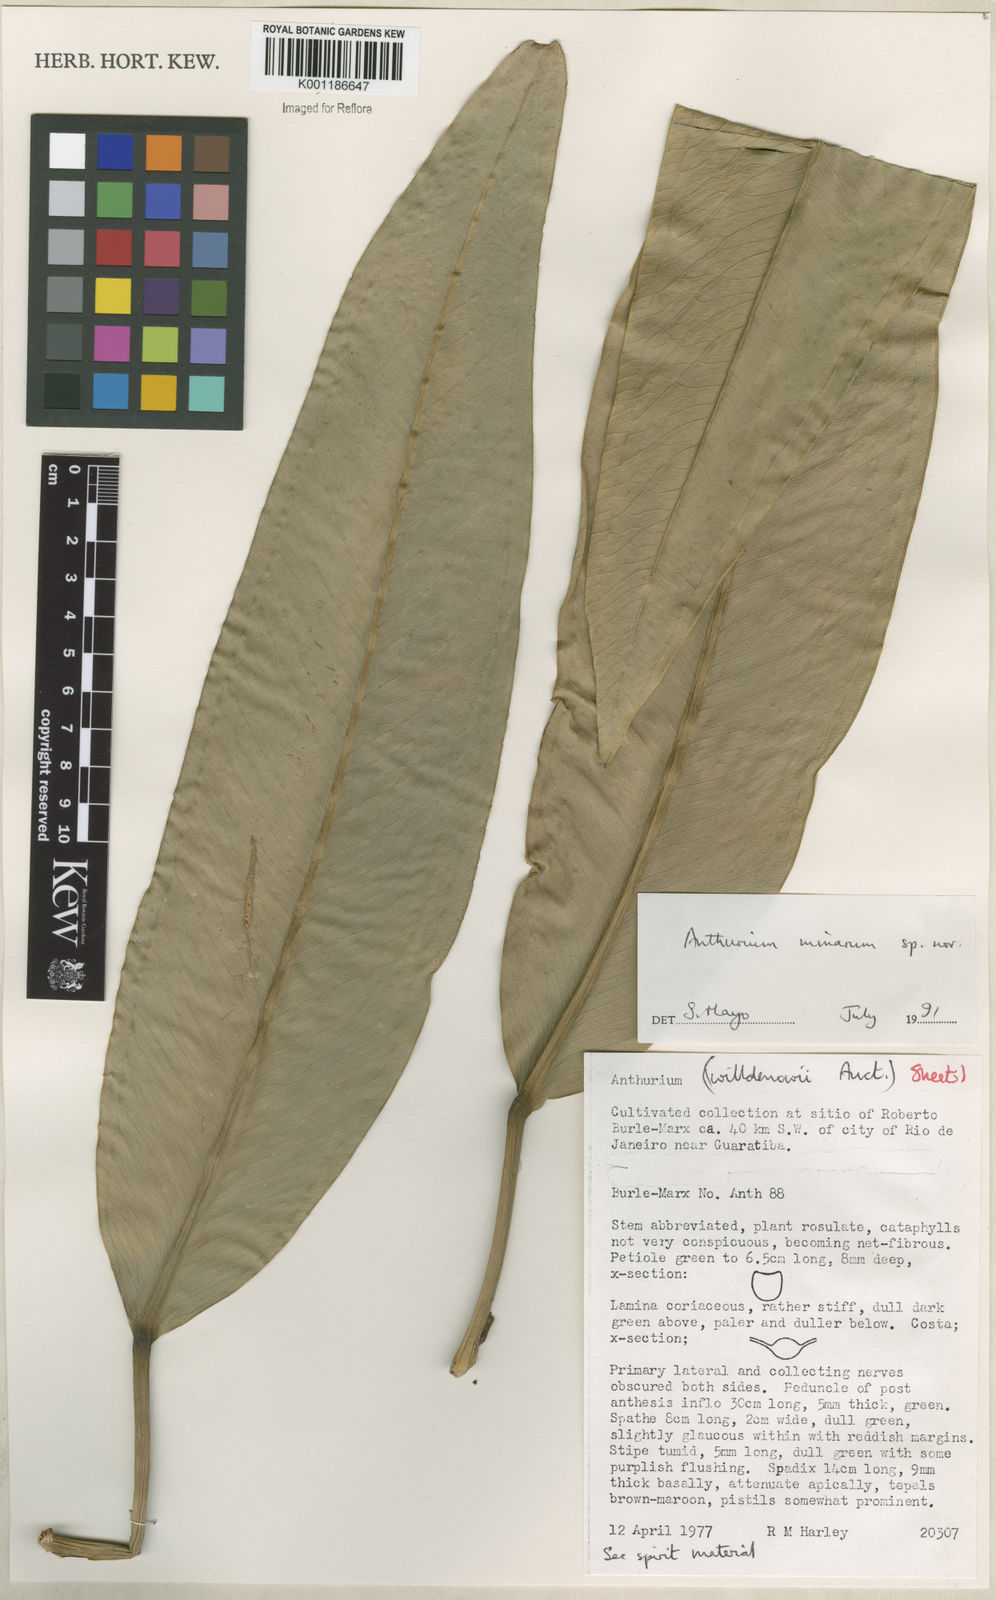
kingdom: Plantae
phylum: Tracheophyta
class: Liliopsida
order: Alismatales
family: Araceae
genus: Anthurium
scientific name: Anthurium minarum
